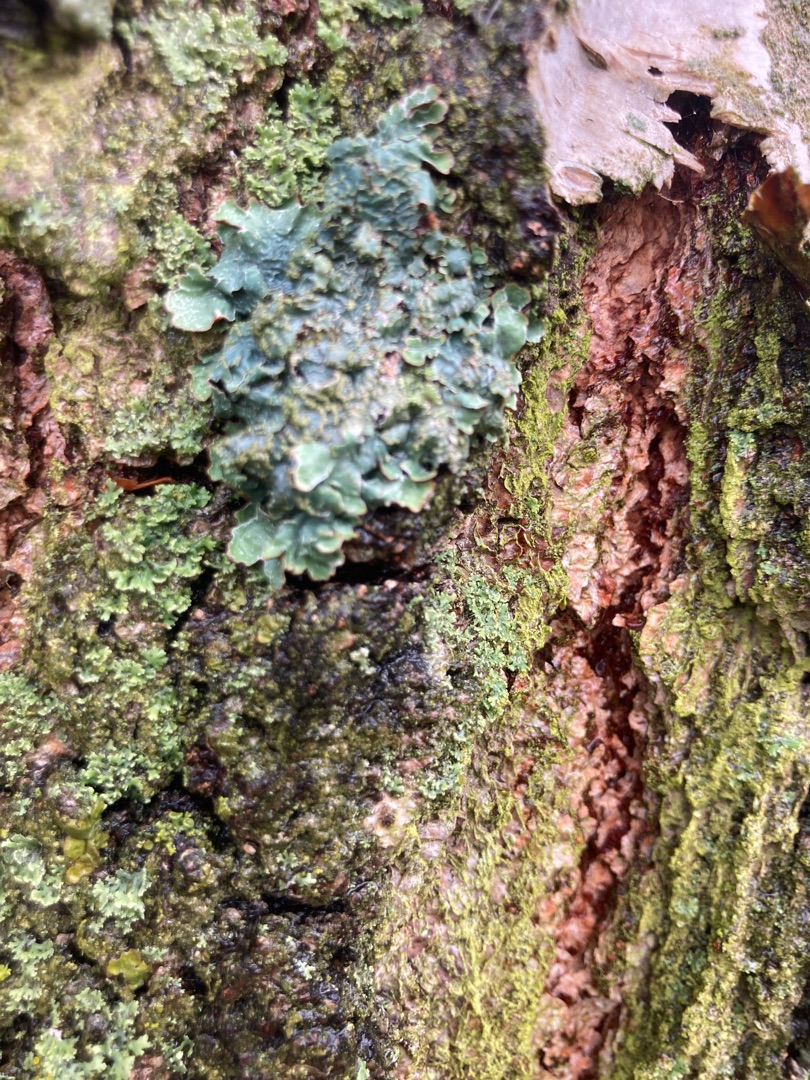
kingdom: Fungi
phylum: Ascomycota
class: Lecanoromycetes
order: Lecanorales
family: Parmeliaceae
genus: Parmelia
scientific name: Parmelia sulcata
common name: Rynket skållav
